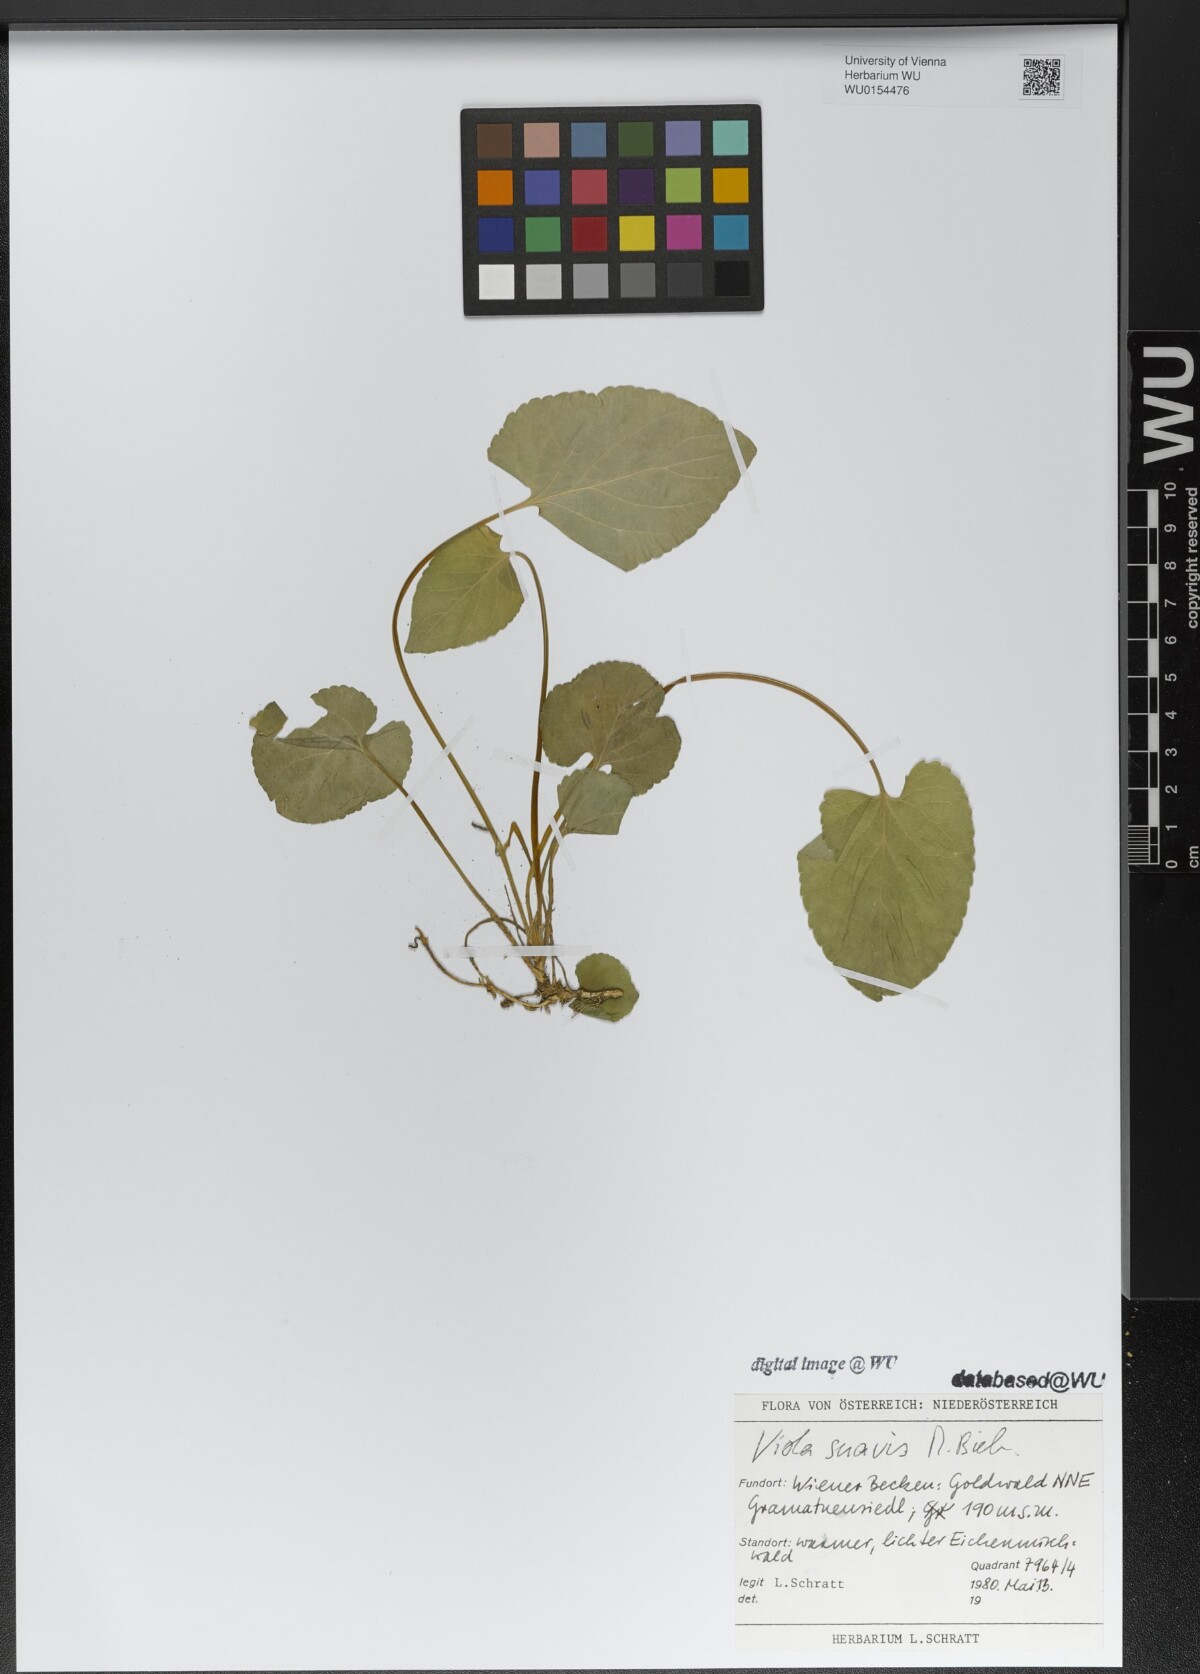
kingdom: Plantae
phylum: Tracheophyta
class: Magnoliopsida
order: Malpighiales
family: Violaceae
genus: Viola
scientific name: Viola suavis
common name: Russian violet
